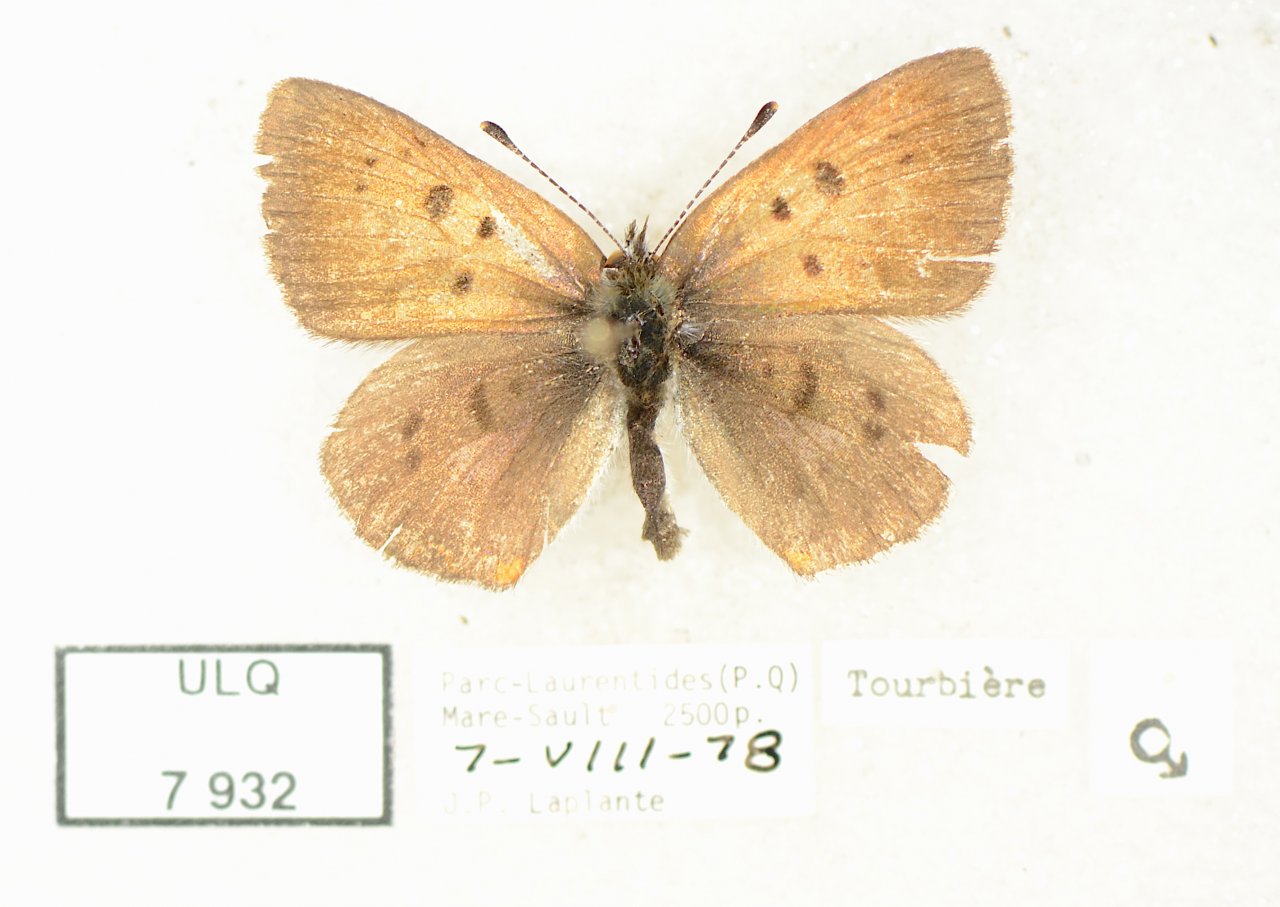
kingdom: Animalia
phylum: Arthropoda
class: Insecta
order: Lepidoptera
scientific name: Lepidoptera
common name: Butterflies
